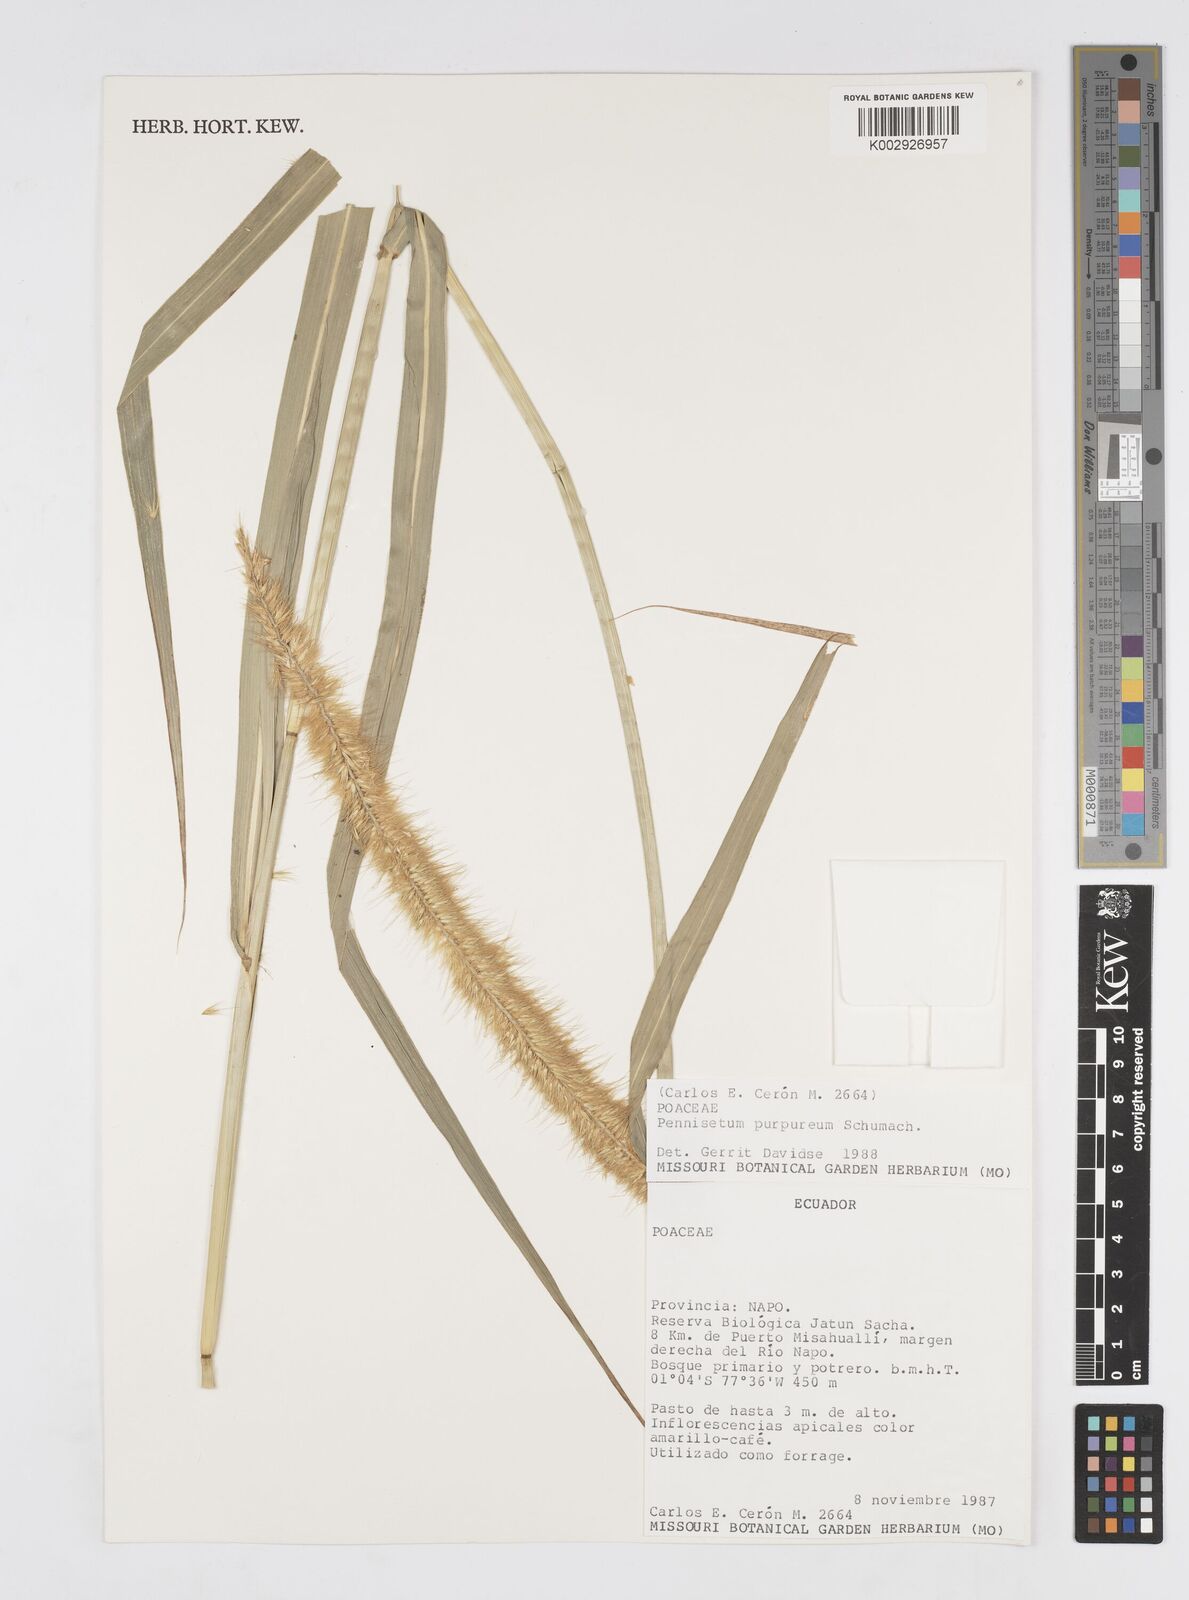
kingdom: Plantae
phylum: Tracheophyta
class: Liliopsida
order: Poales
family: Poaceae
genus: Cenchrus
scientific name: Cenchrus purpureus
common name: Elephant grass
